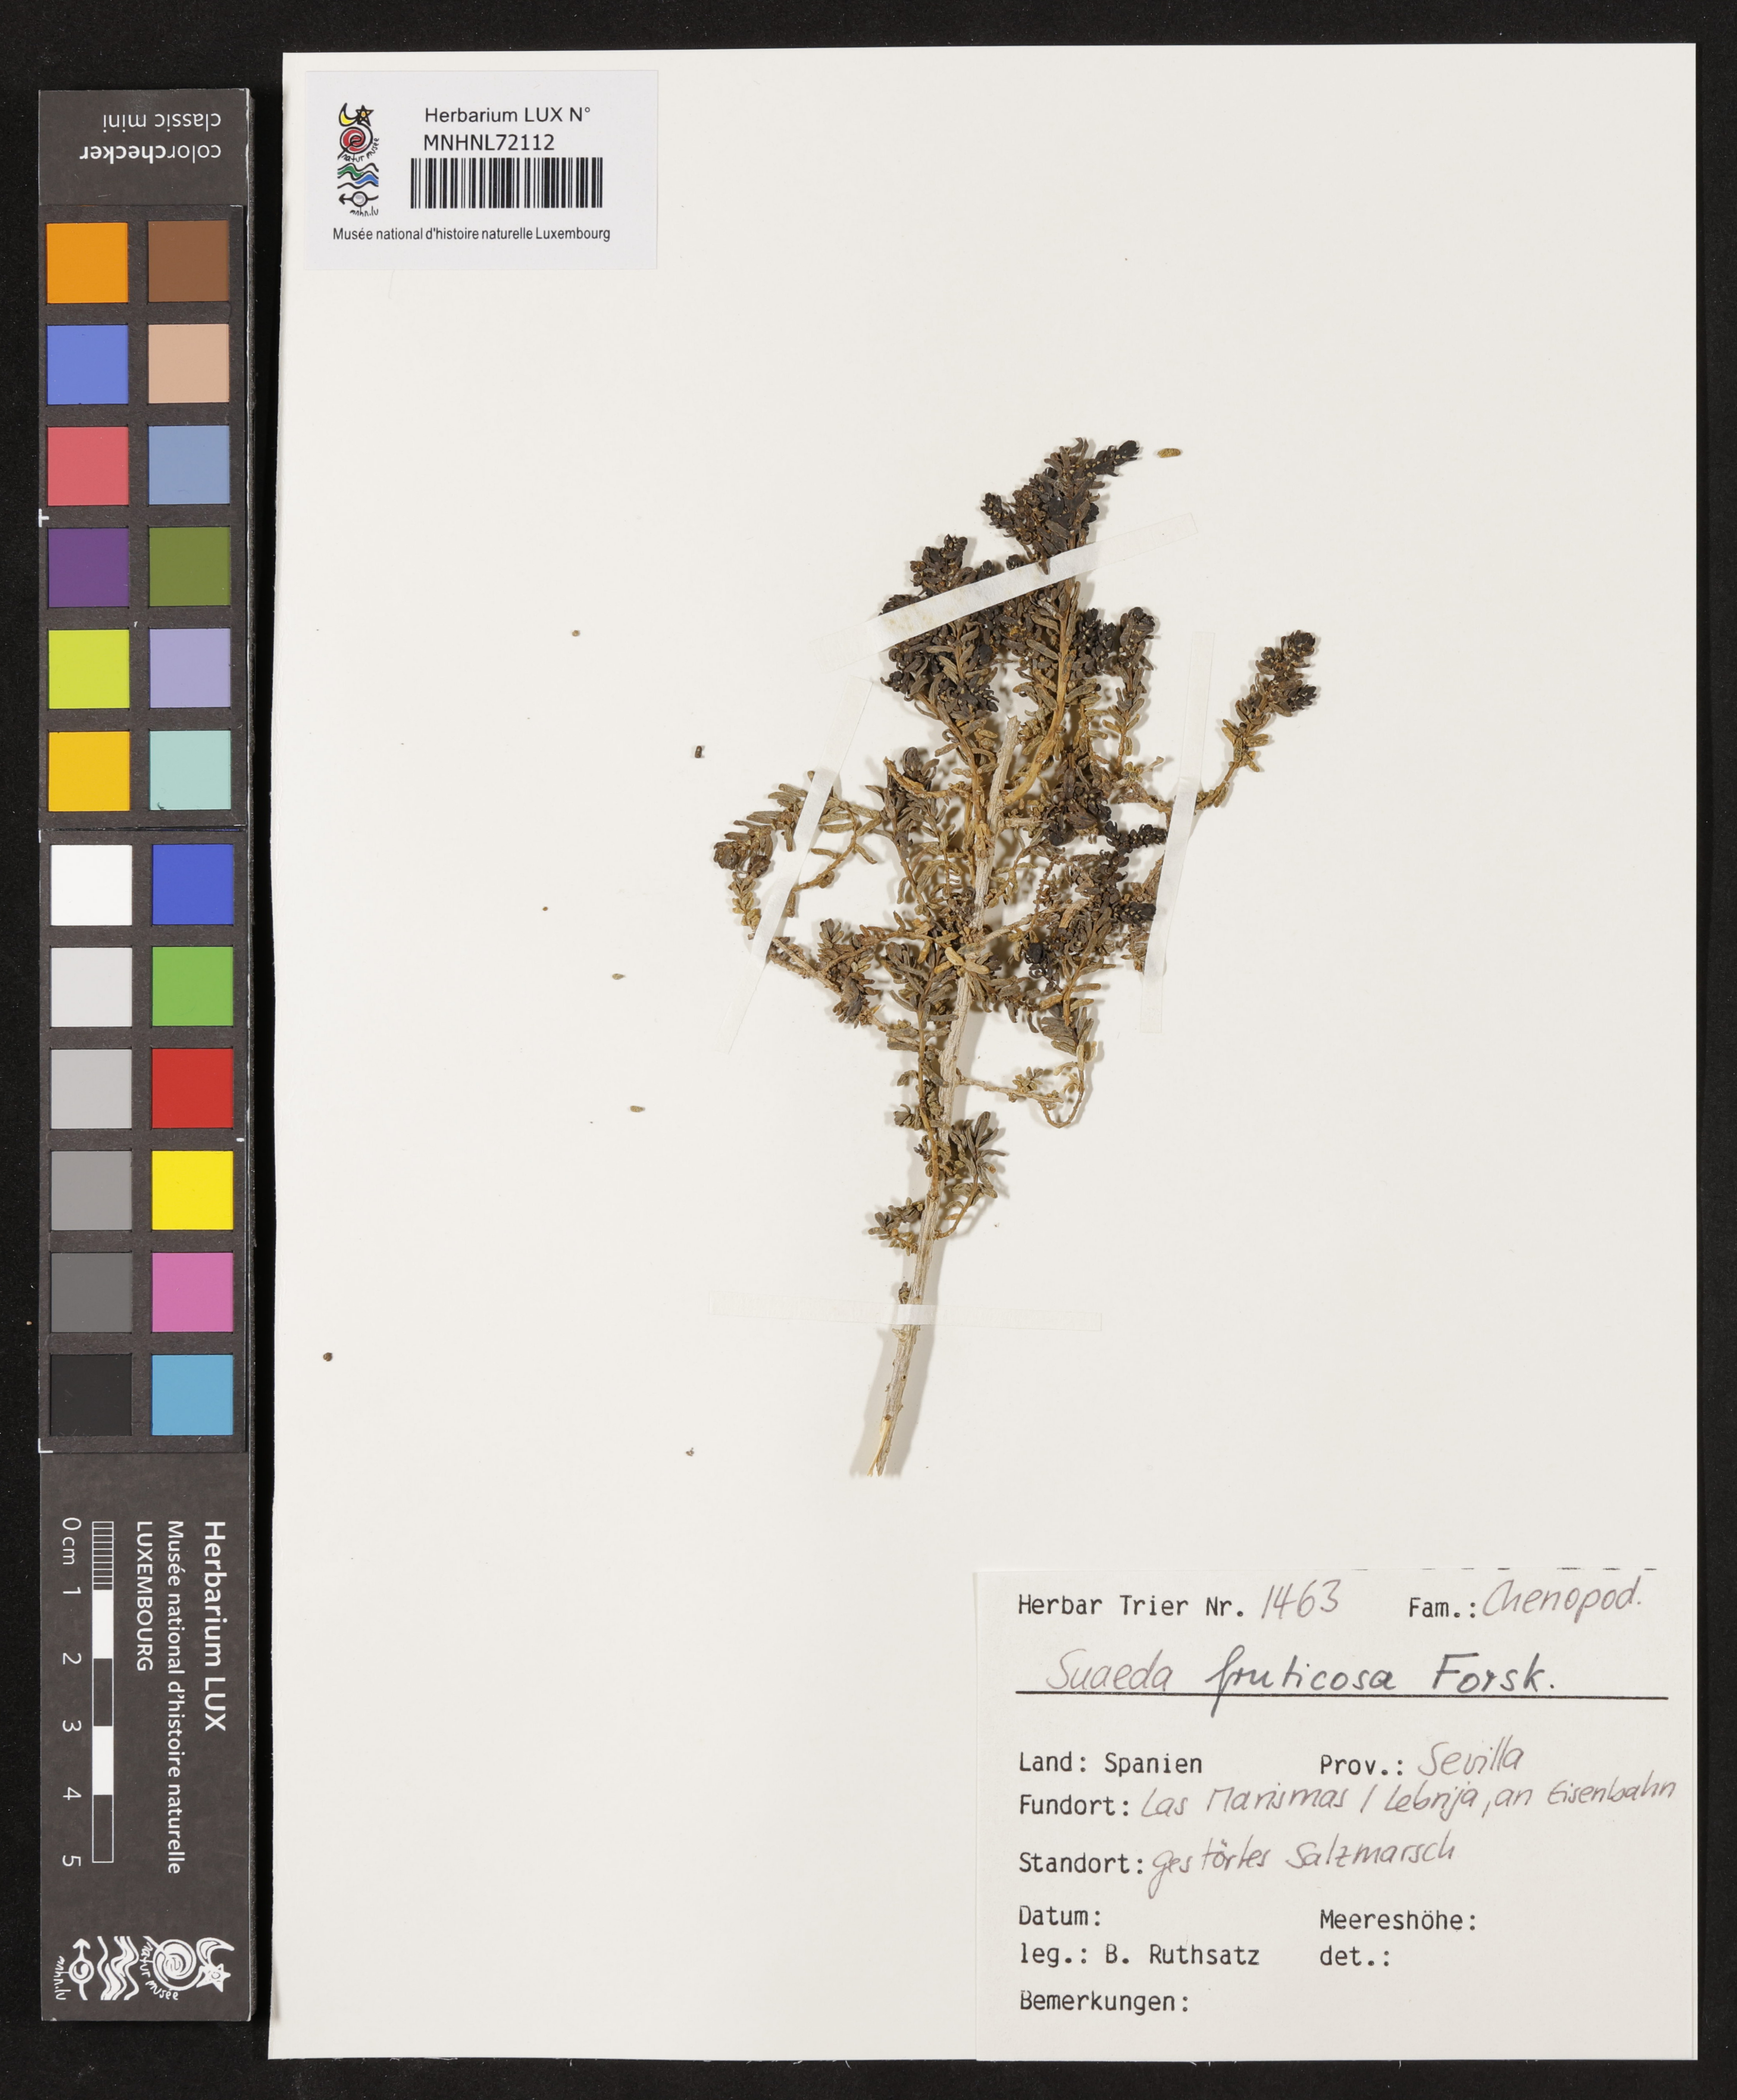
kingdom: Plantae
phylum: Tracheophyta
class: Magnoliopsida
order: Caryophyllales
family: Amaranthaceae
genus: Suaeda
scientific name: Suaeda fruticosa
